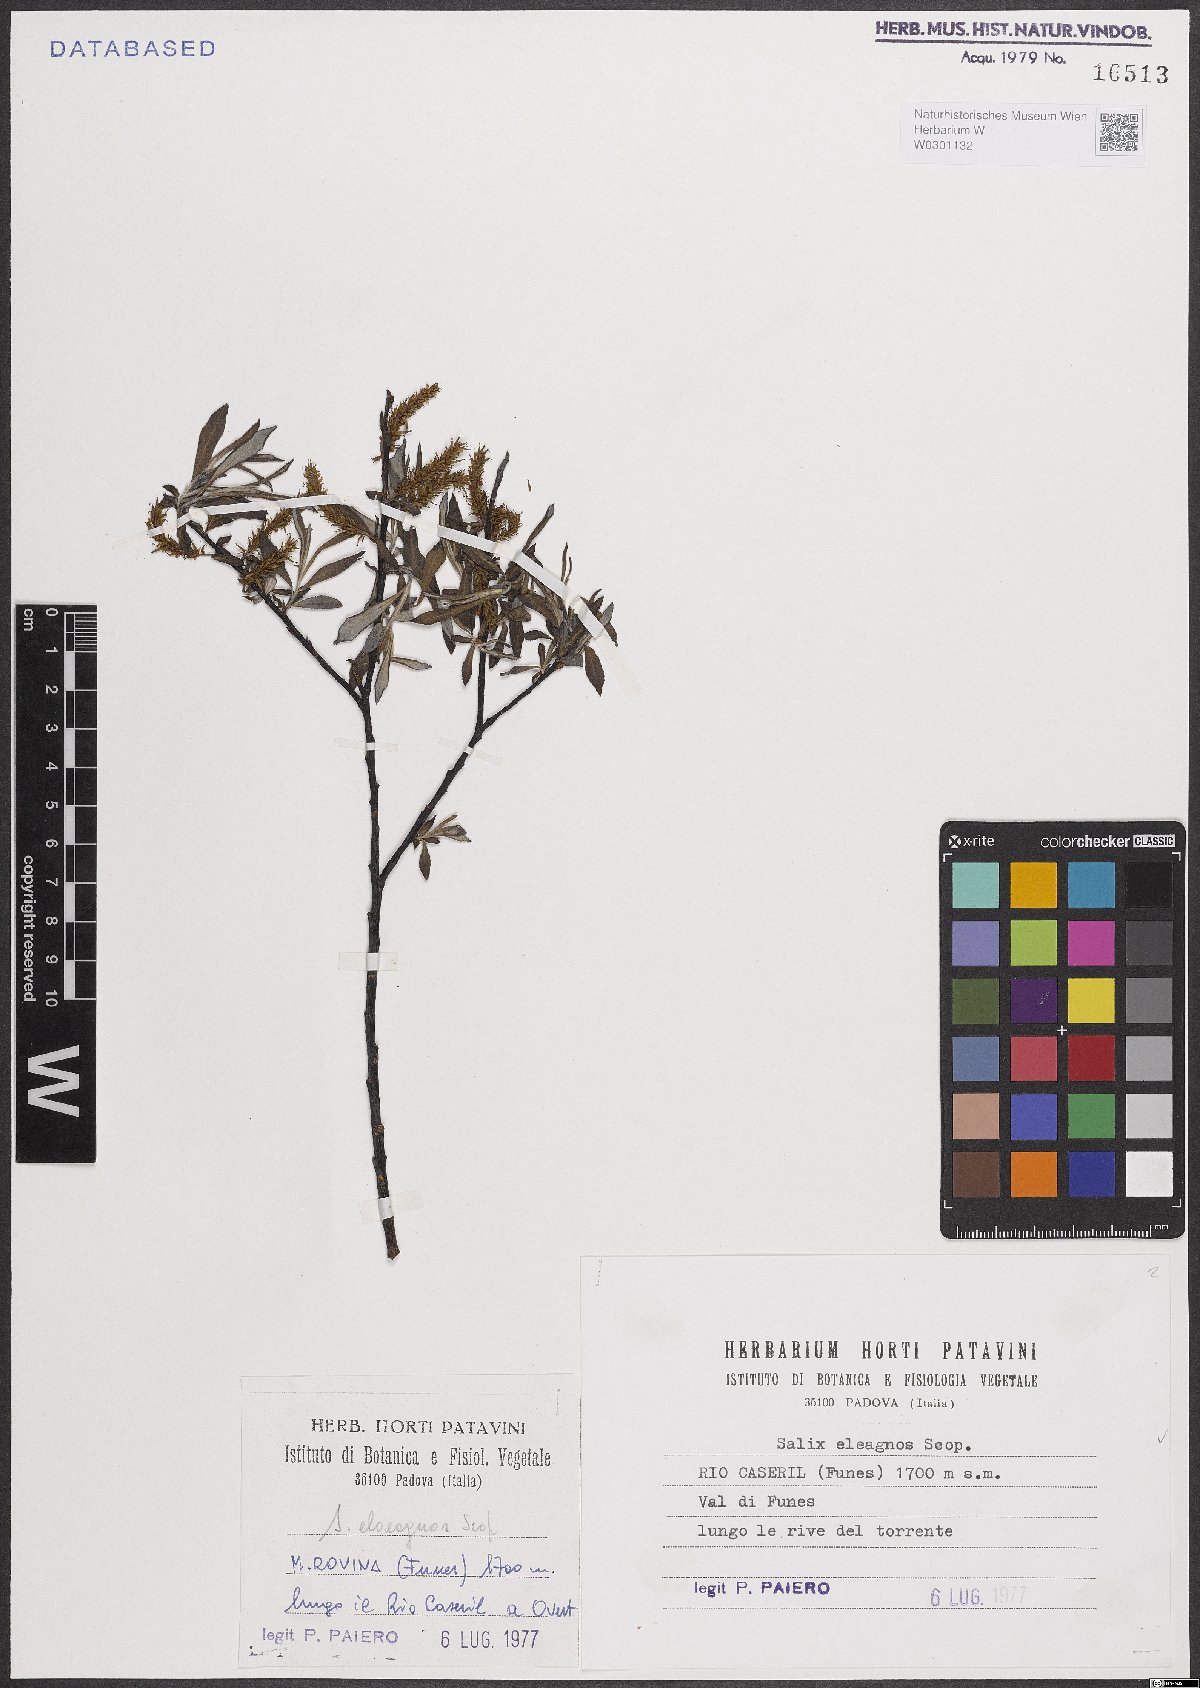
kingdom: Plantae
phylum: Tracheophyta
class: Magnoliopsida
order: Malpighiales
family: Salicaceae
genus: Salix
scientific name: Salix eleagnos
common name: Elaeagnus willow
